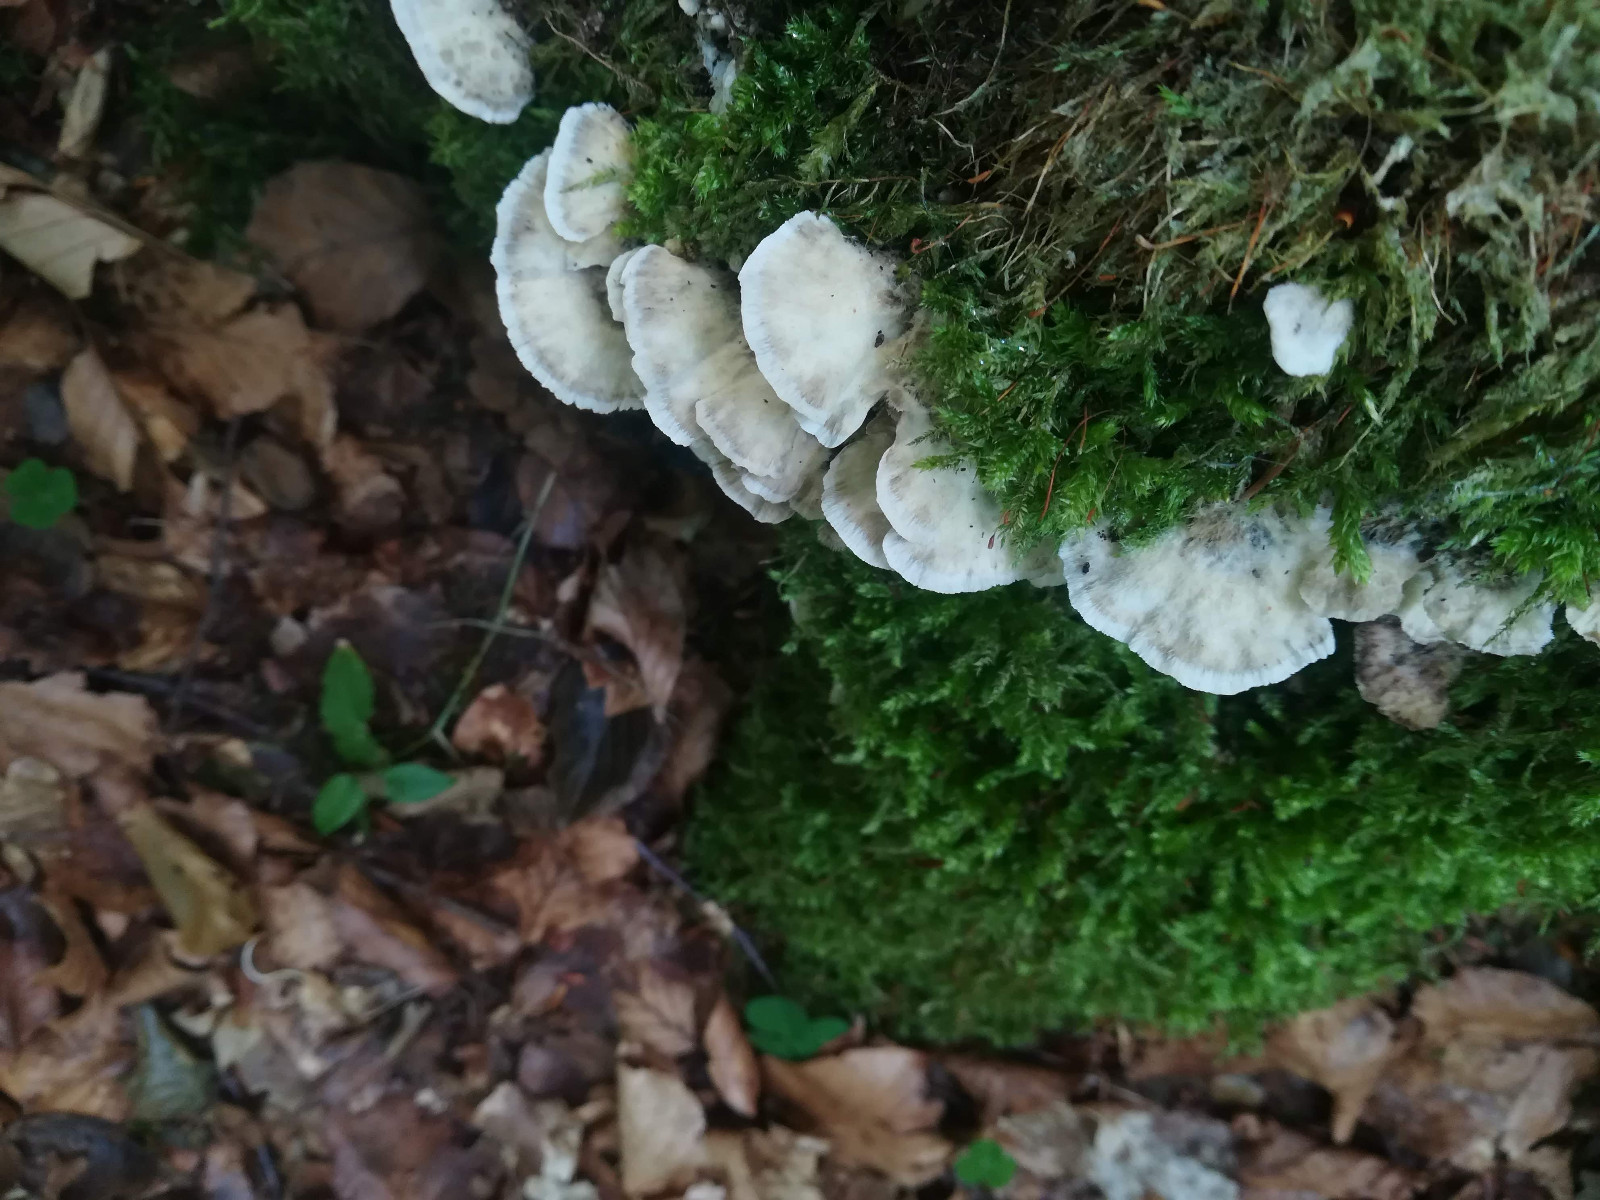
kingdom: Fungi
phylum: Basidiomycota
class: Agaricomycetes
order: Polyporales
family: Phanerochaetaceae
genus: Bjerkandera
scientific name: Bjerkandera adusta
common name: sveden sodporesvamp
